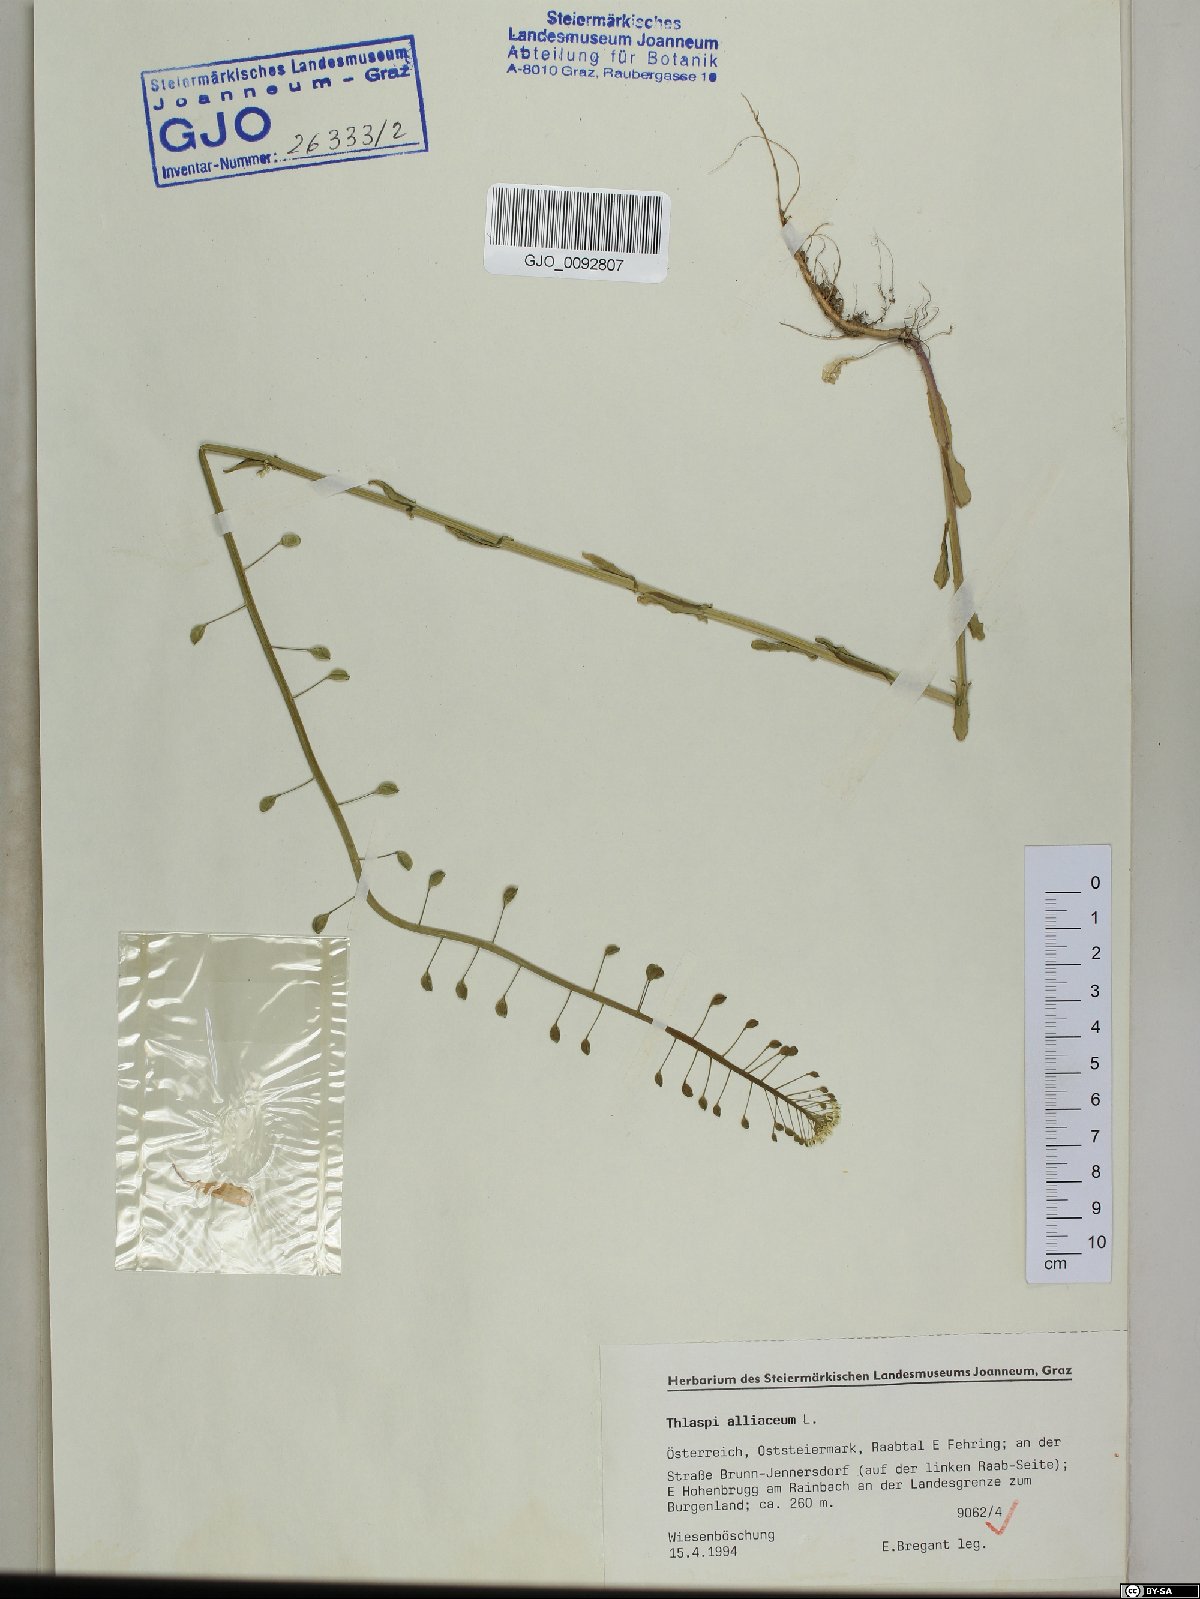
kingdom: Plantae
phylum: Tracheophyta
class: Magnoliopsida
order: Brassicales
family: Brassicaceae
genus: Mummenhoffia
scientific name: Mummenhoffia alliacea
